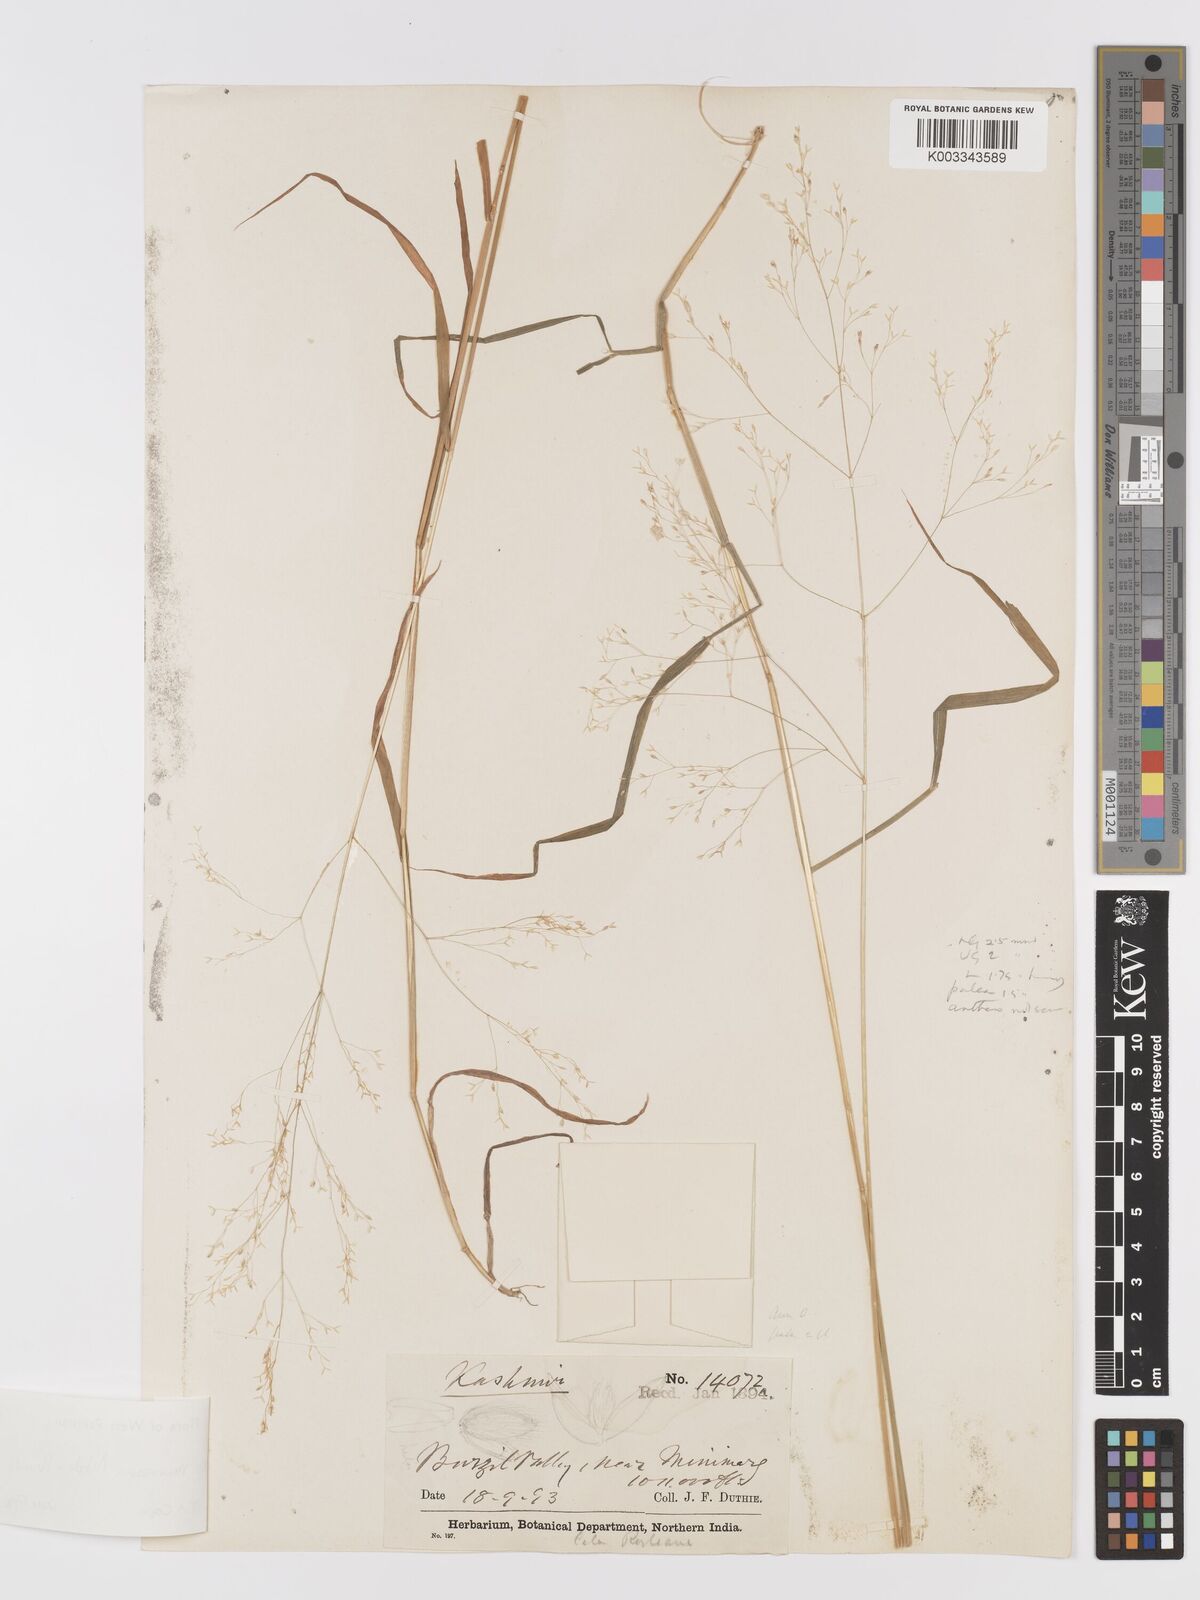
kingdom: Plantae
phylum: Tracheophyta
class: Liliopsida
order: Poales
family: Poaceae
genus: Agrostis
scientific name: Agrostis munroana
